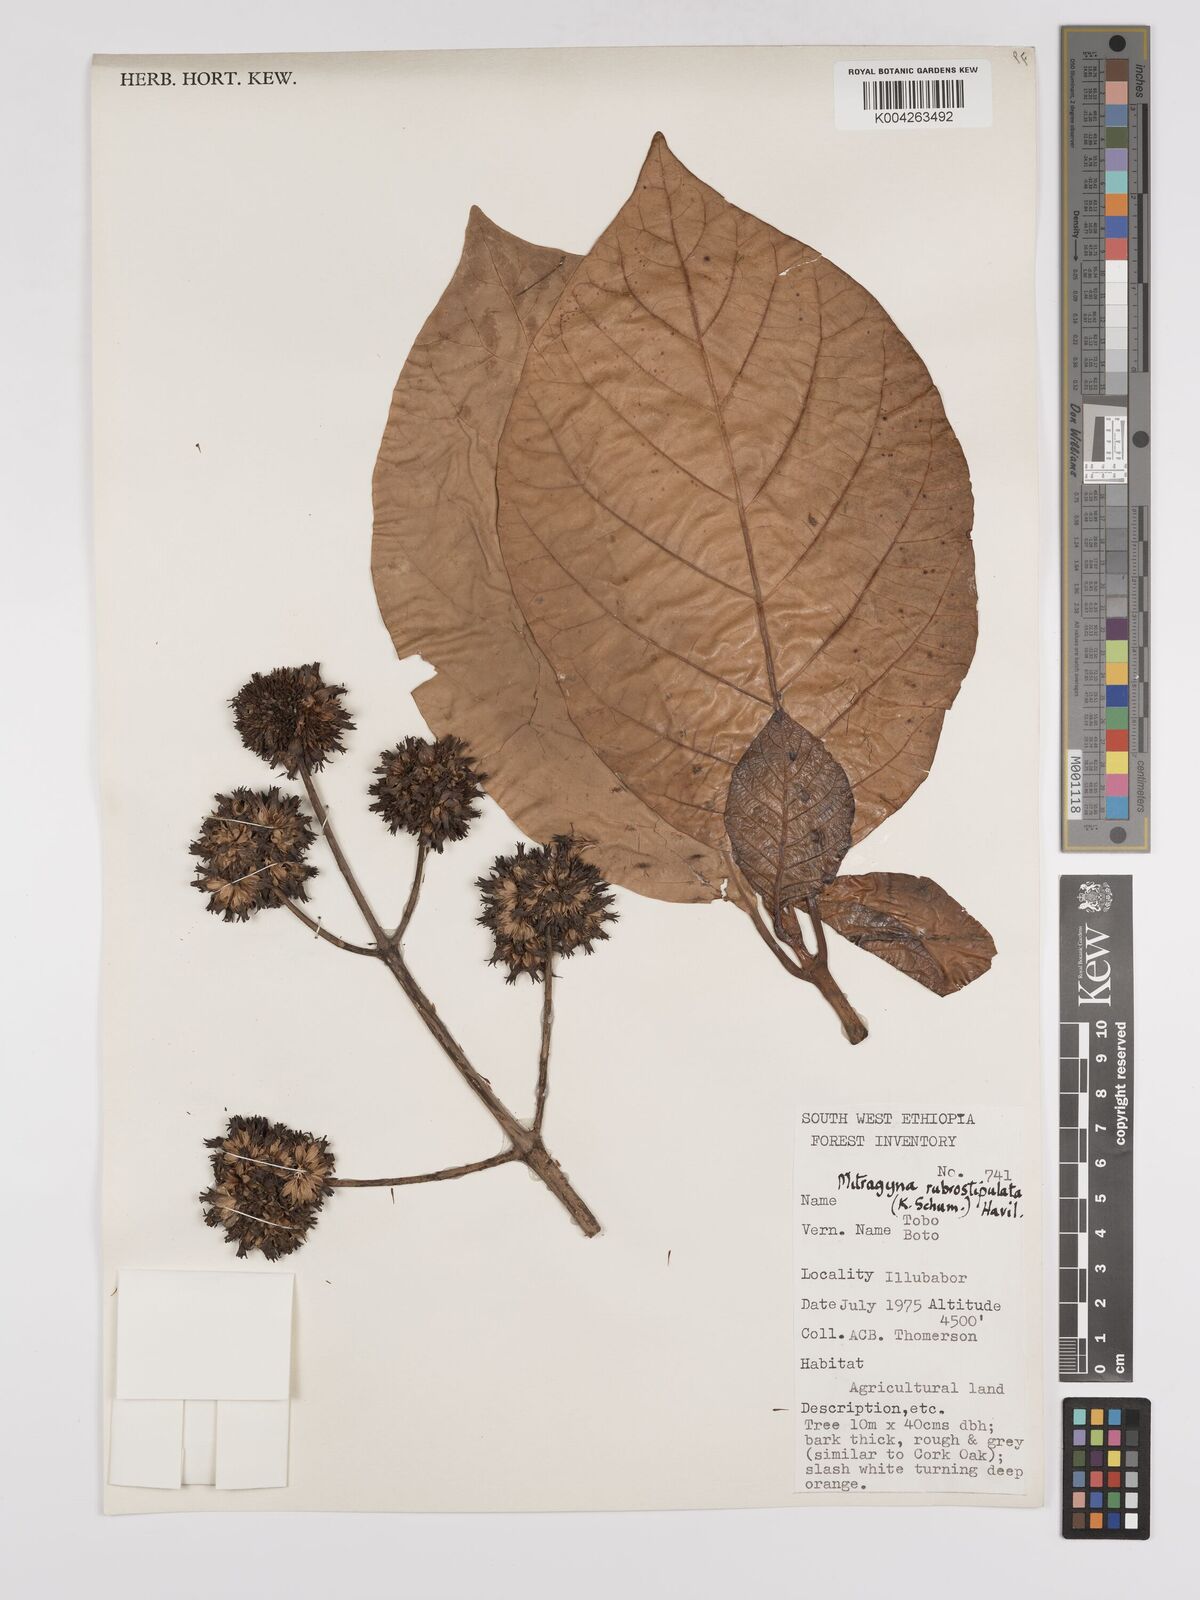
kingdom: Plantae
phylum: Tracheophyta
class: Magnoliopsida
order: Gentianales
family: Rubiaceae
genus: Mitragyna
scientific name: Mitragyna rubrostipulata
